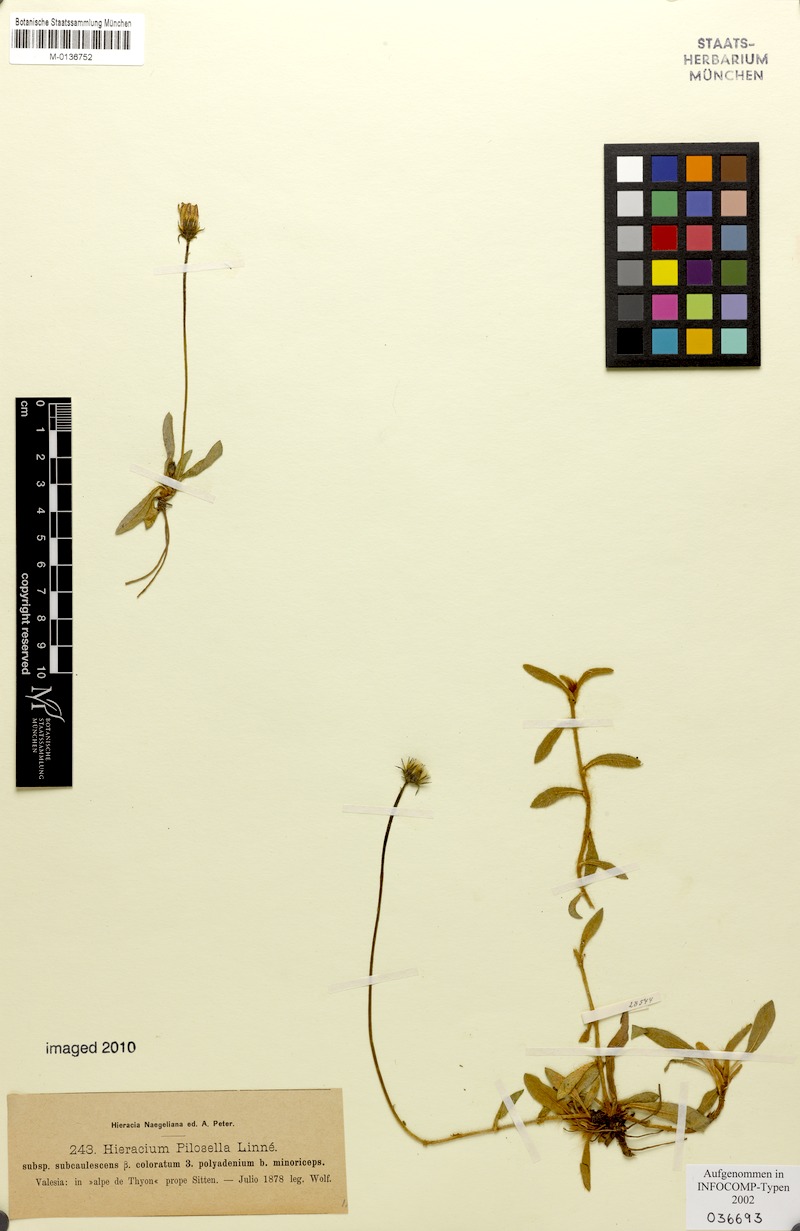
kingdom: Plantae
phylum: Tracheophyta
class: Magnoliopsida
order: Asterales
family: Asteraceae
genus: Pilosella
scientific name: Pilosella officinarum
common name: Mouse-ear hawkweed
